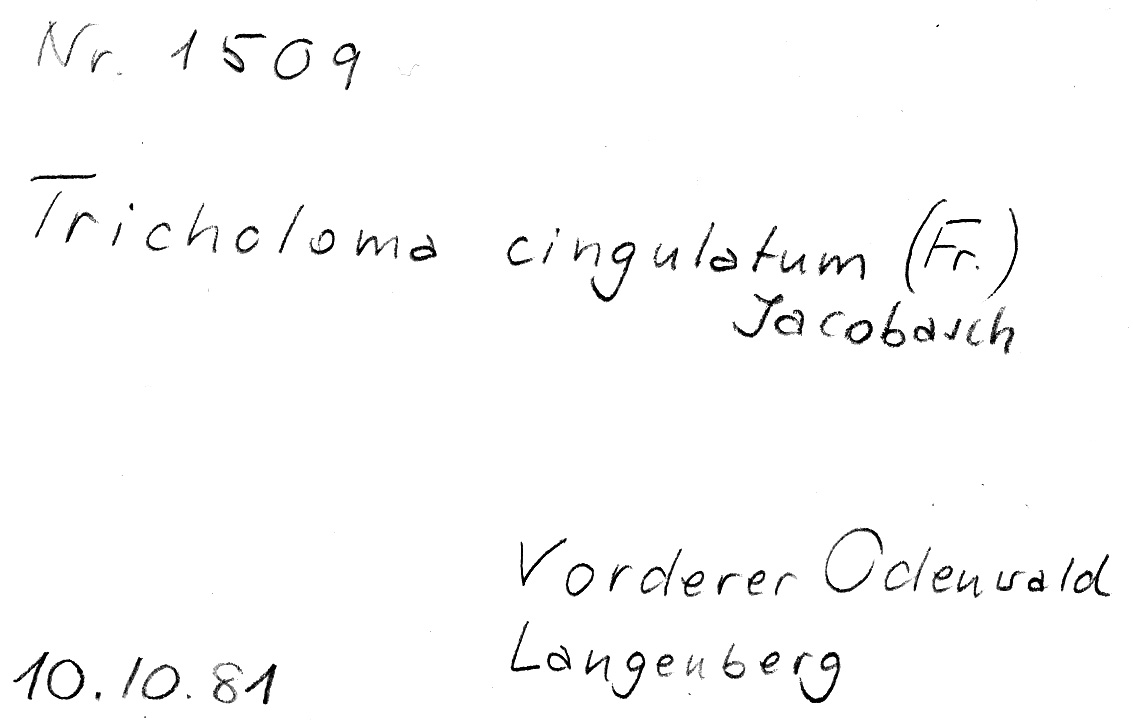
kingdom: Fungi
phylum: Basidiomycota
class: Agaricomycetes
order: Agaricales
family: Tricholomataceae
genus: Tricholoma
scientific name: Tricholoma cingulatum
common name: Girdled knight
